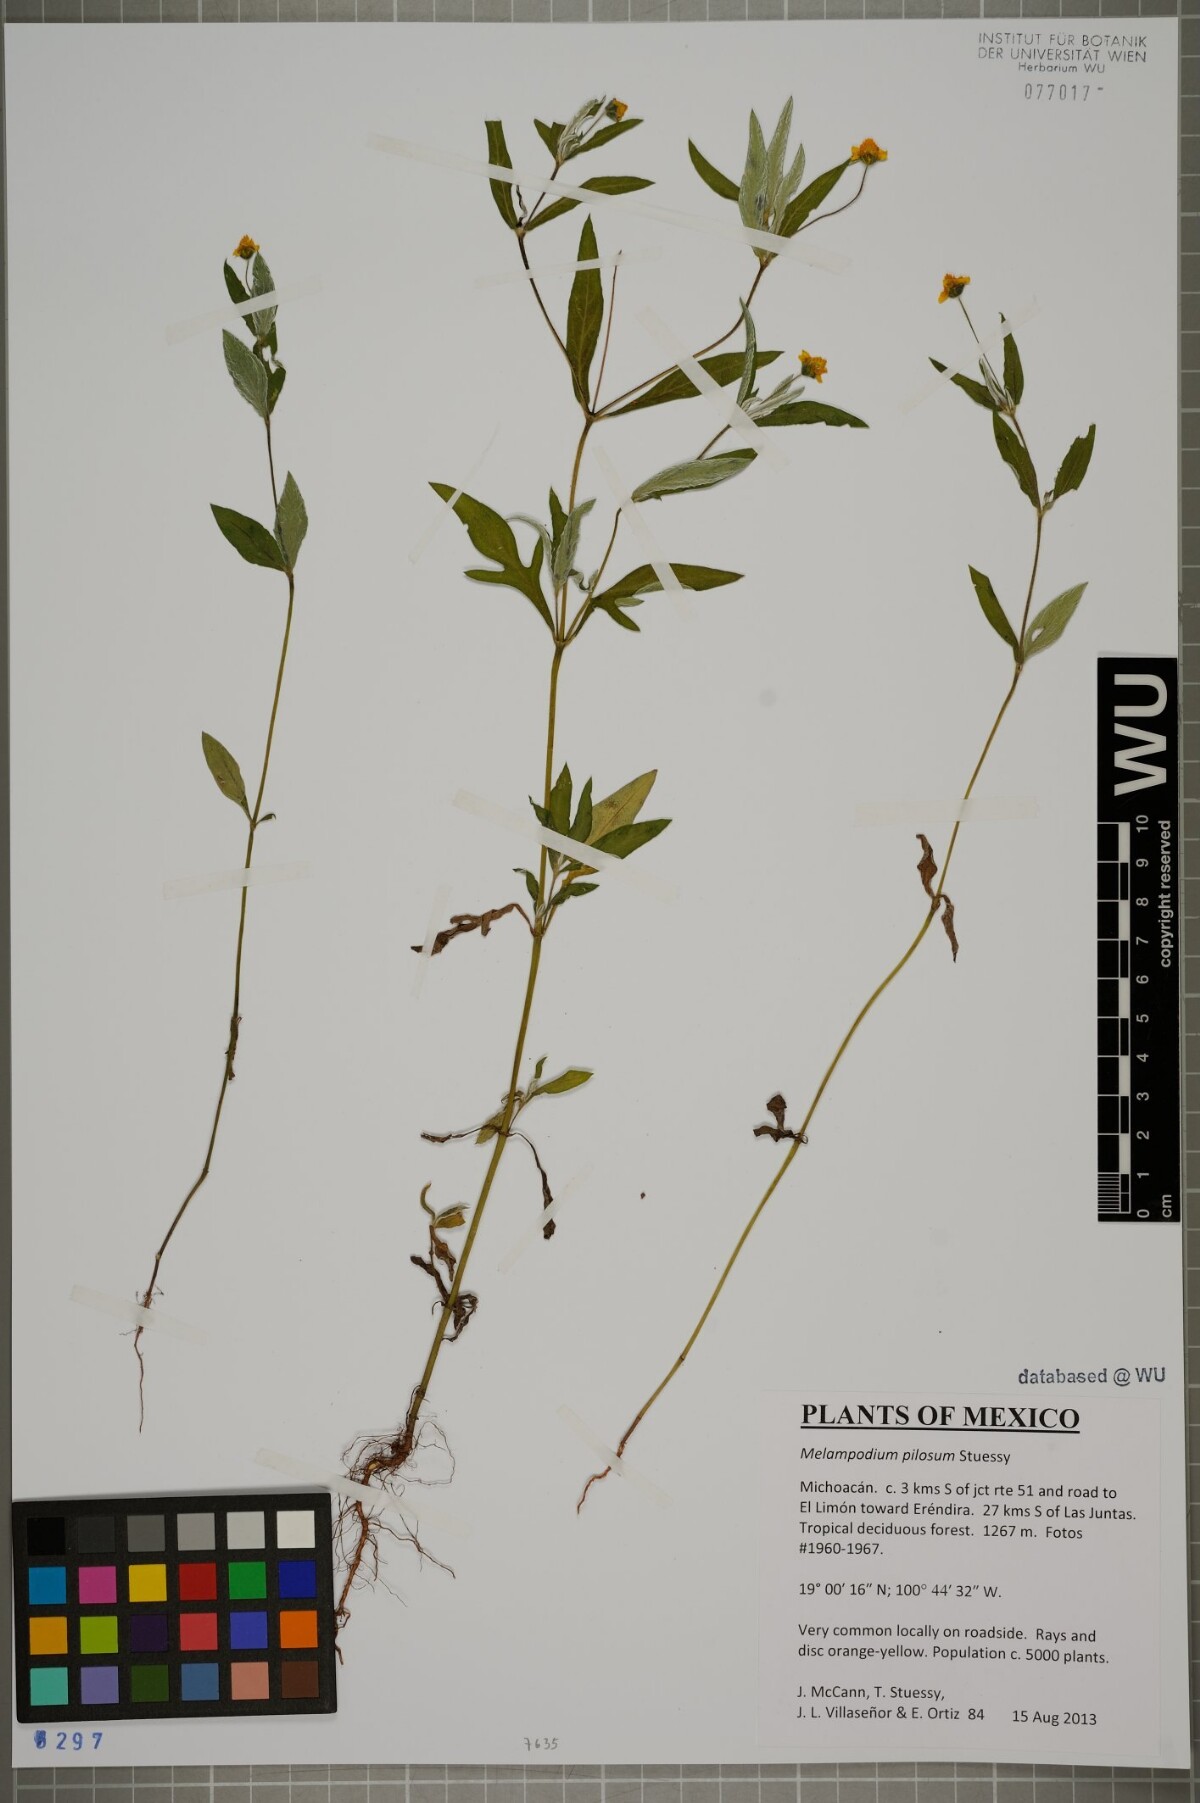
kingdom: Plantae
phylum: Tracheophyta
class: Magnoliopsida
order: Asterales
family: Asteraceae
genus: Melampodium
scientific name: Melampodium pilosum
